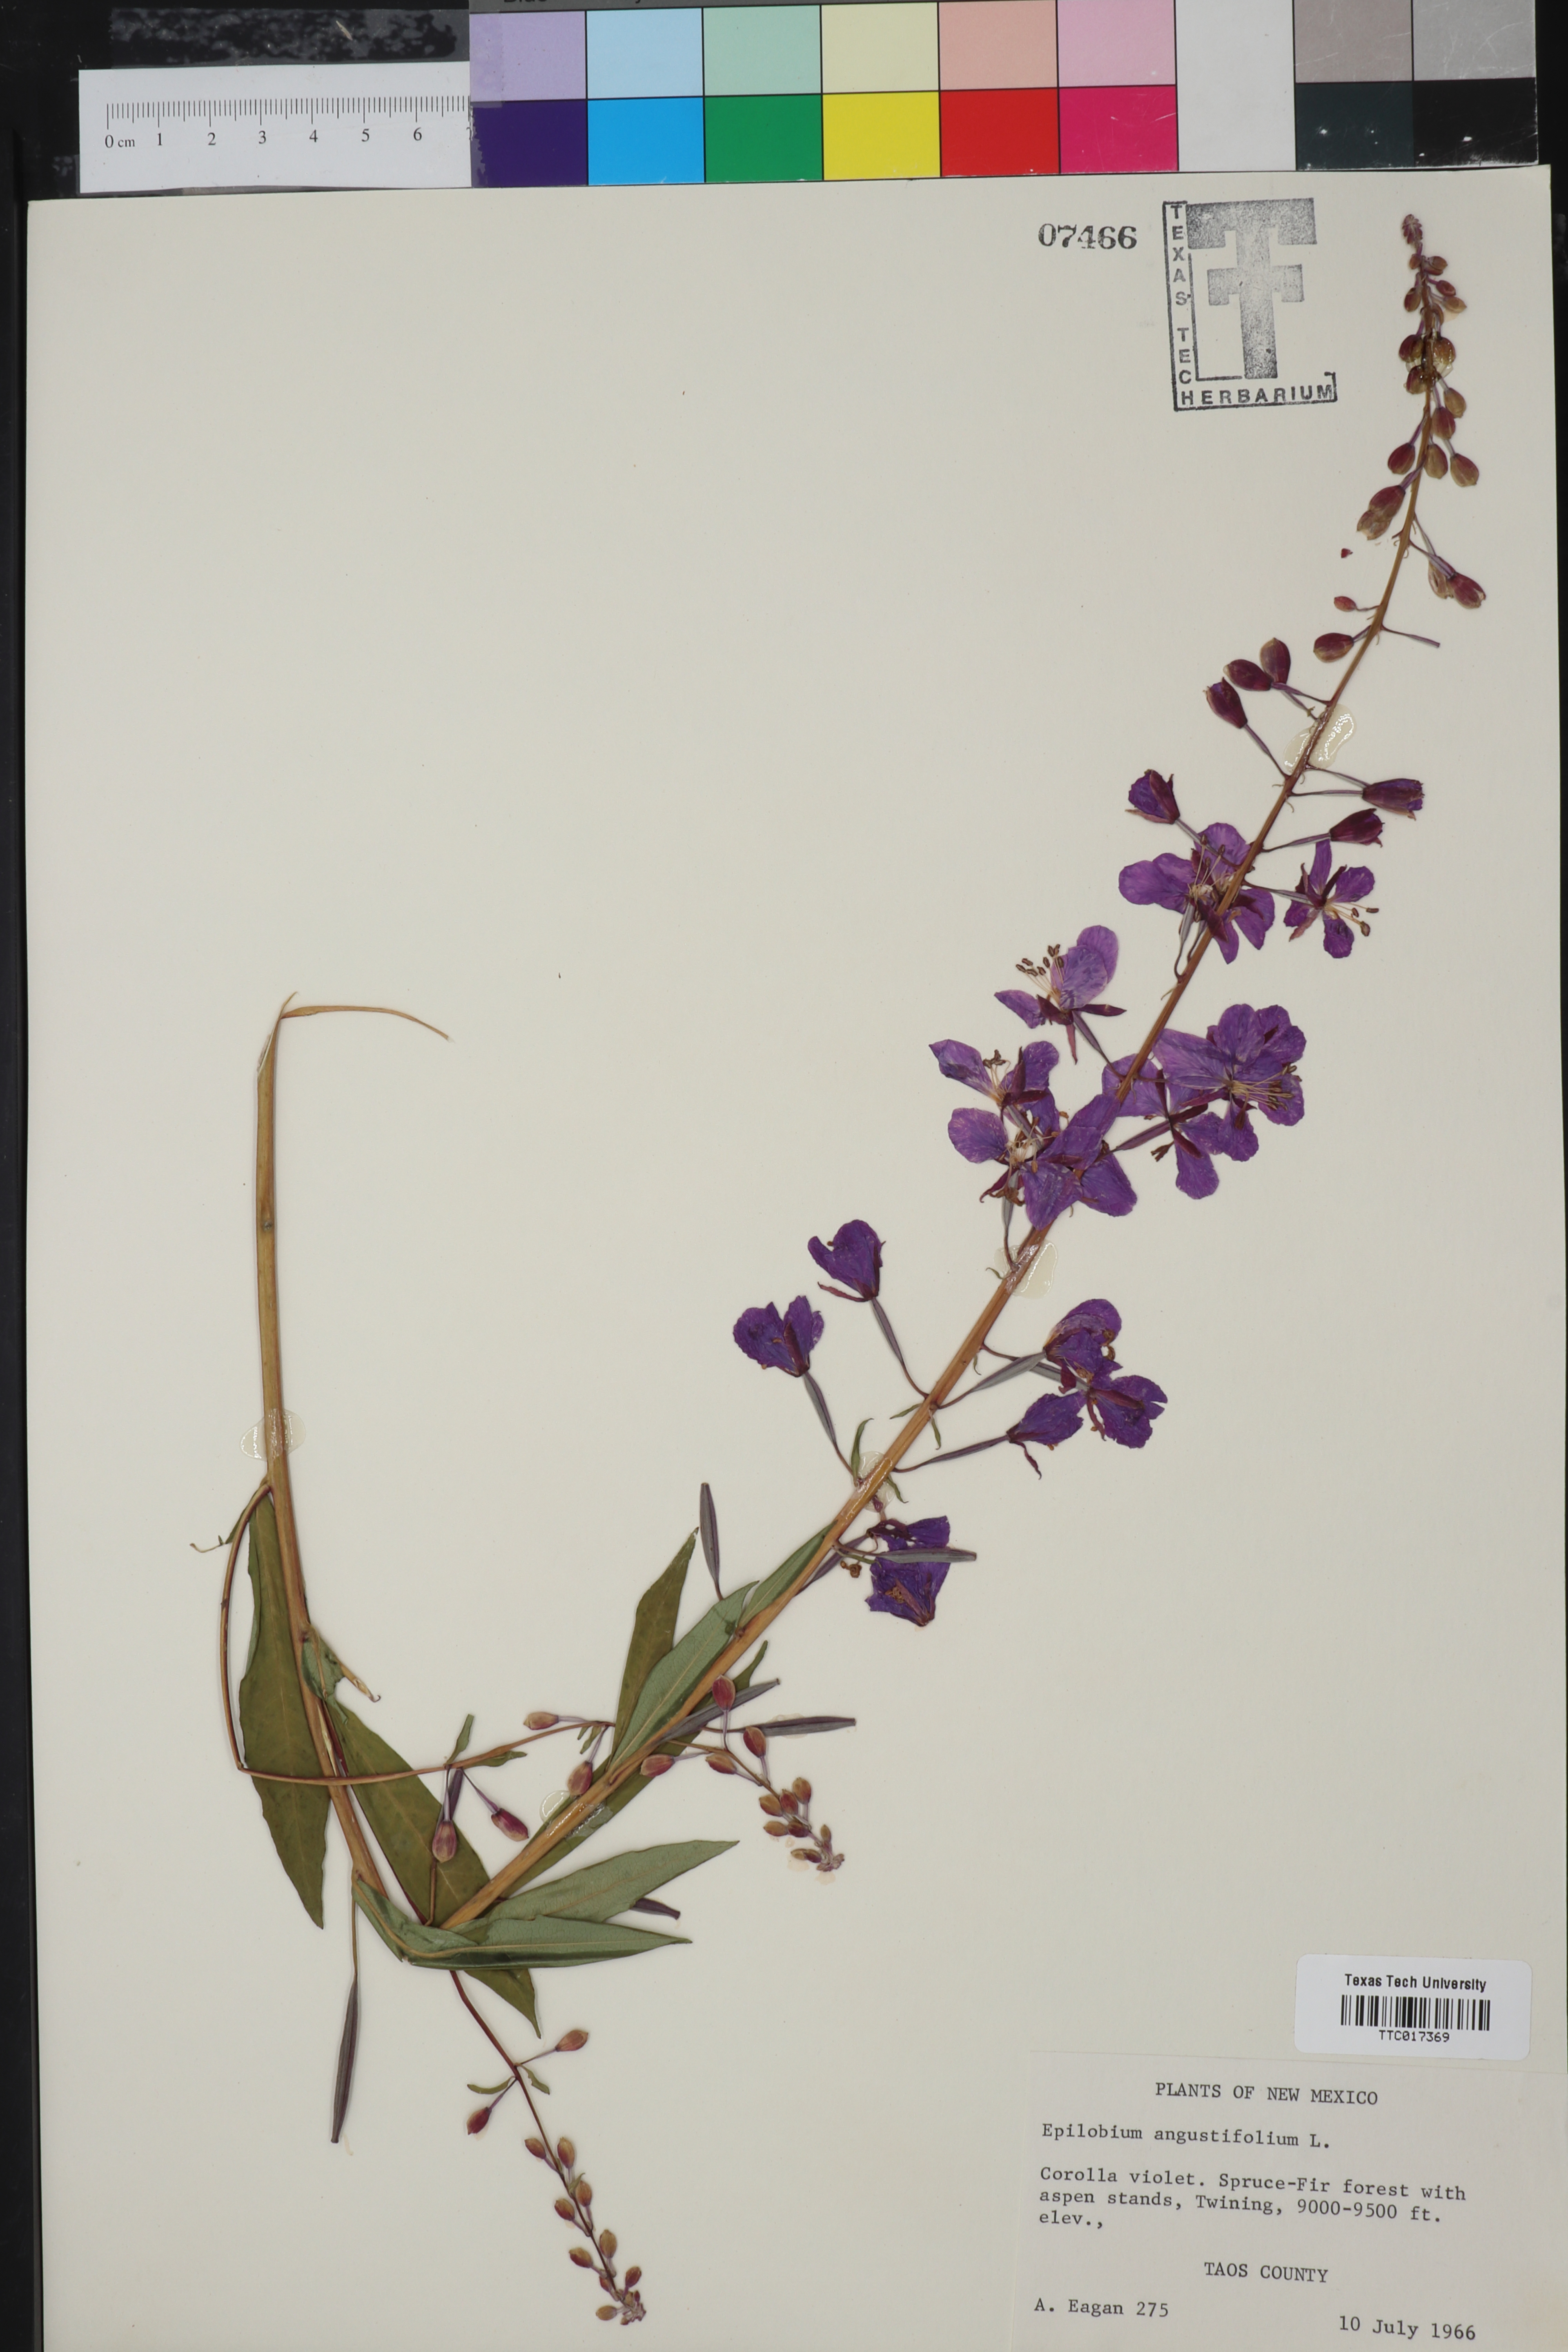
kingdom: Plantae
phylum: Tracheophyta
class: Magnoliopsida
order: Myrtales
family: Onagraceae
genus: Chamaenerion
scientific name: Chamaenerion dodonaei
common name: Rosemary-leaved willowherb
